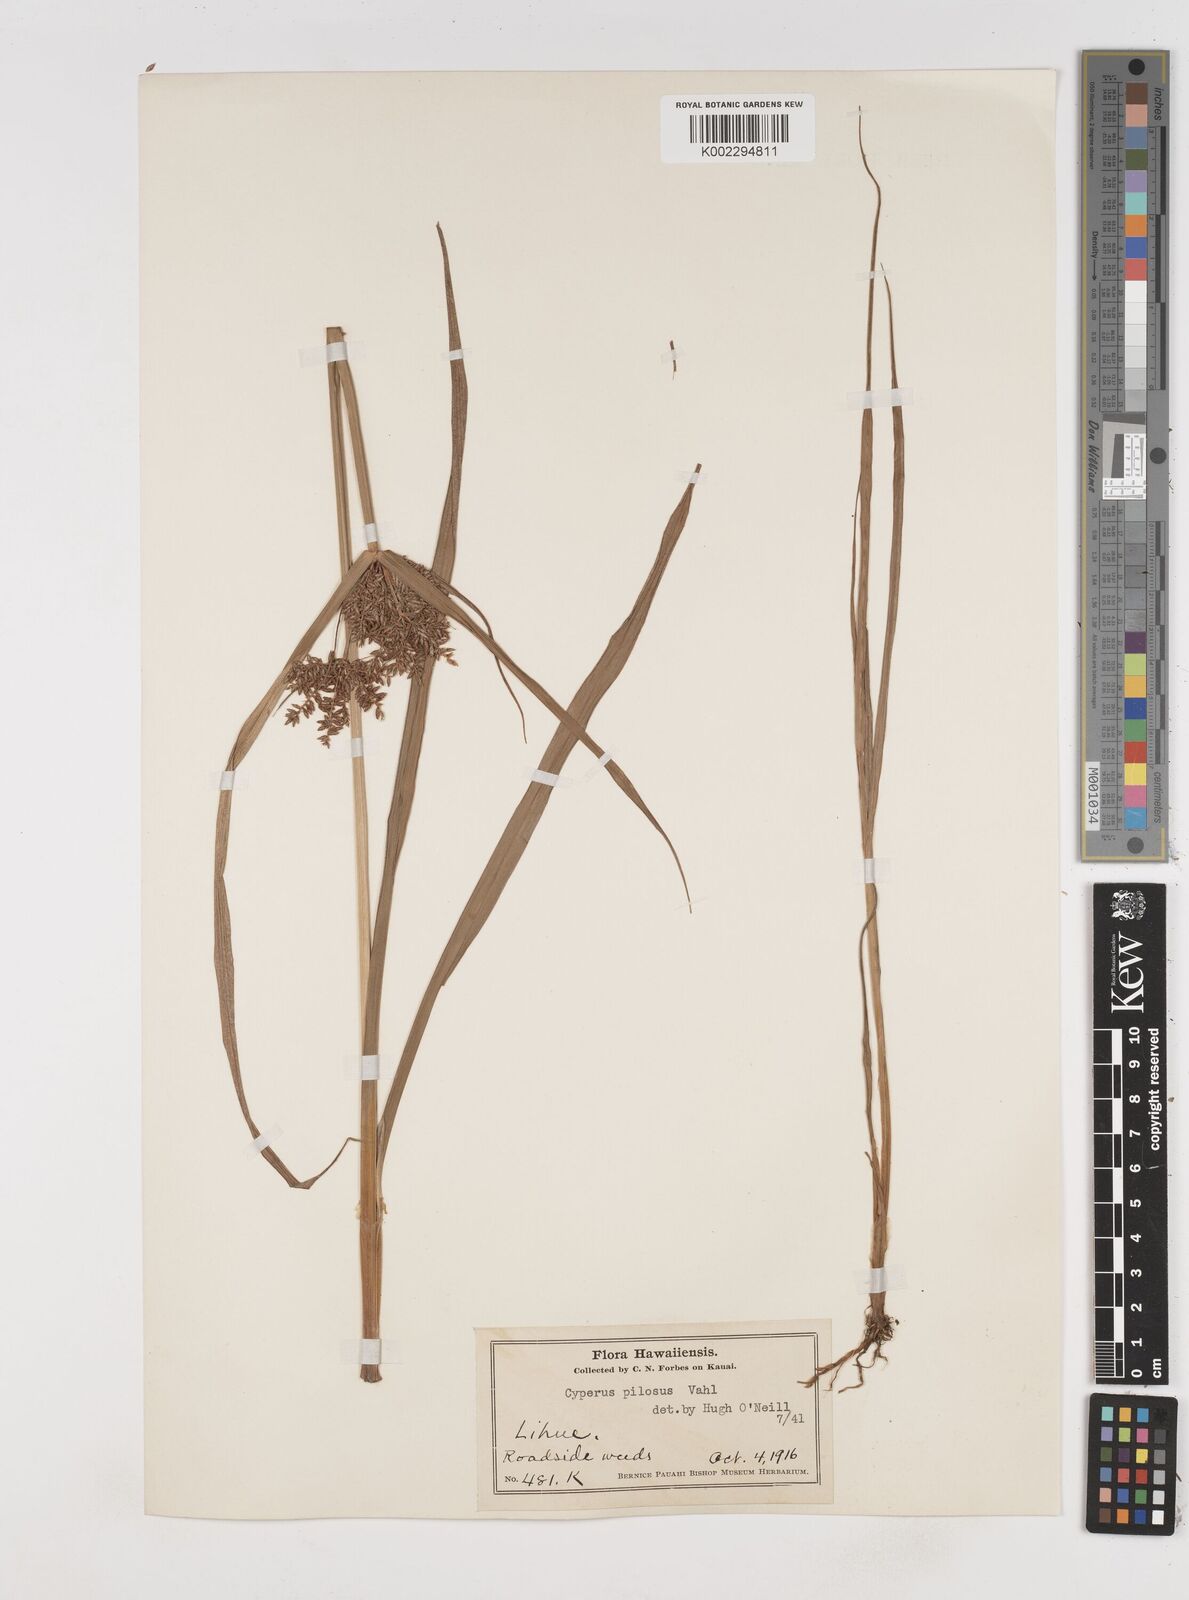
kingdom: Plantae
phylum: Tracheophyta
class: Liliopsida
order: Poales
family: Cyperaceae
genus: Cyperus
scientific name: Cyperus pilosus
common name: Fuzzy flatsedge
